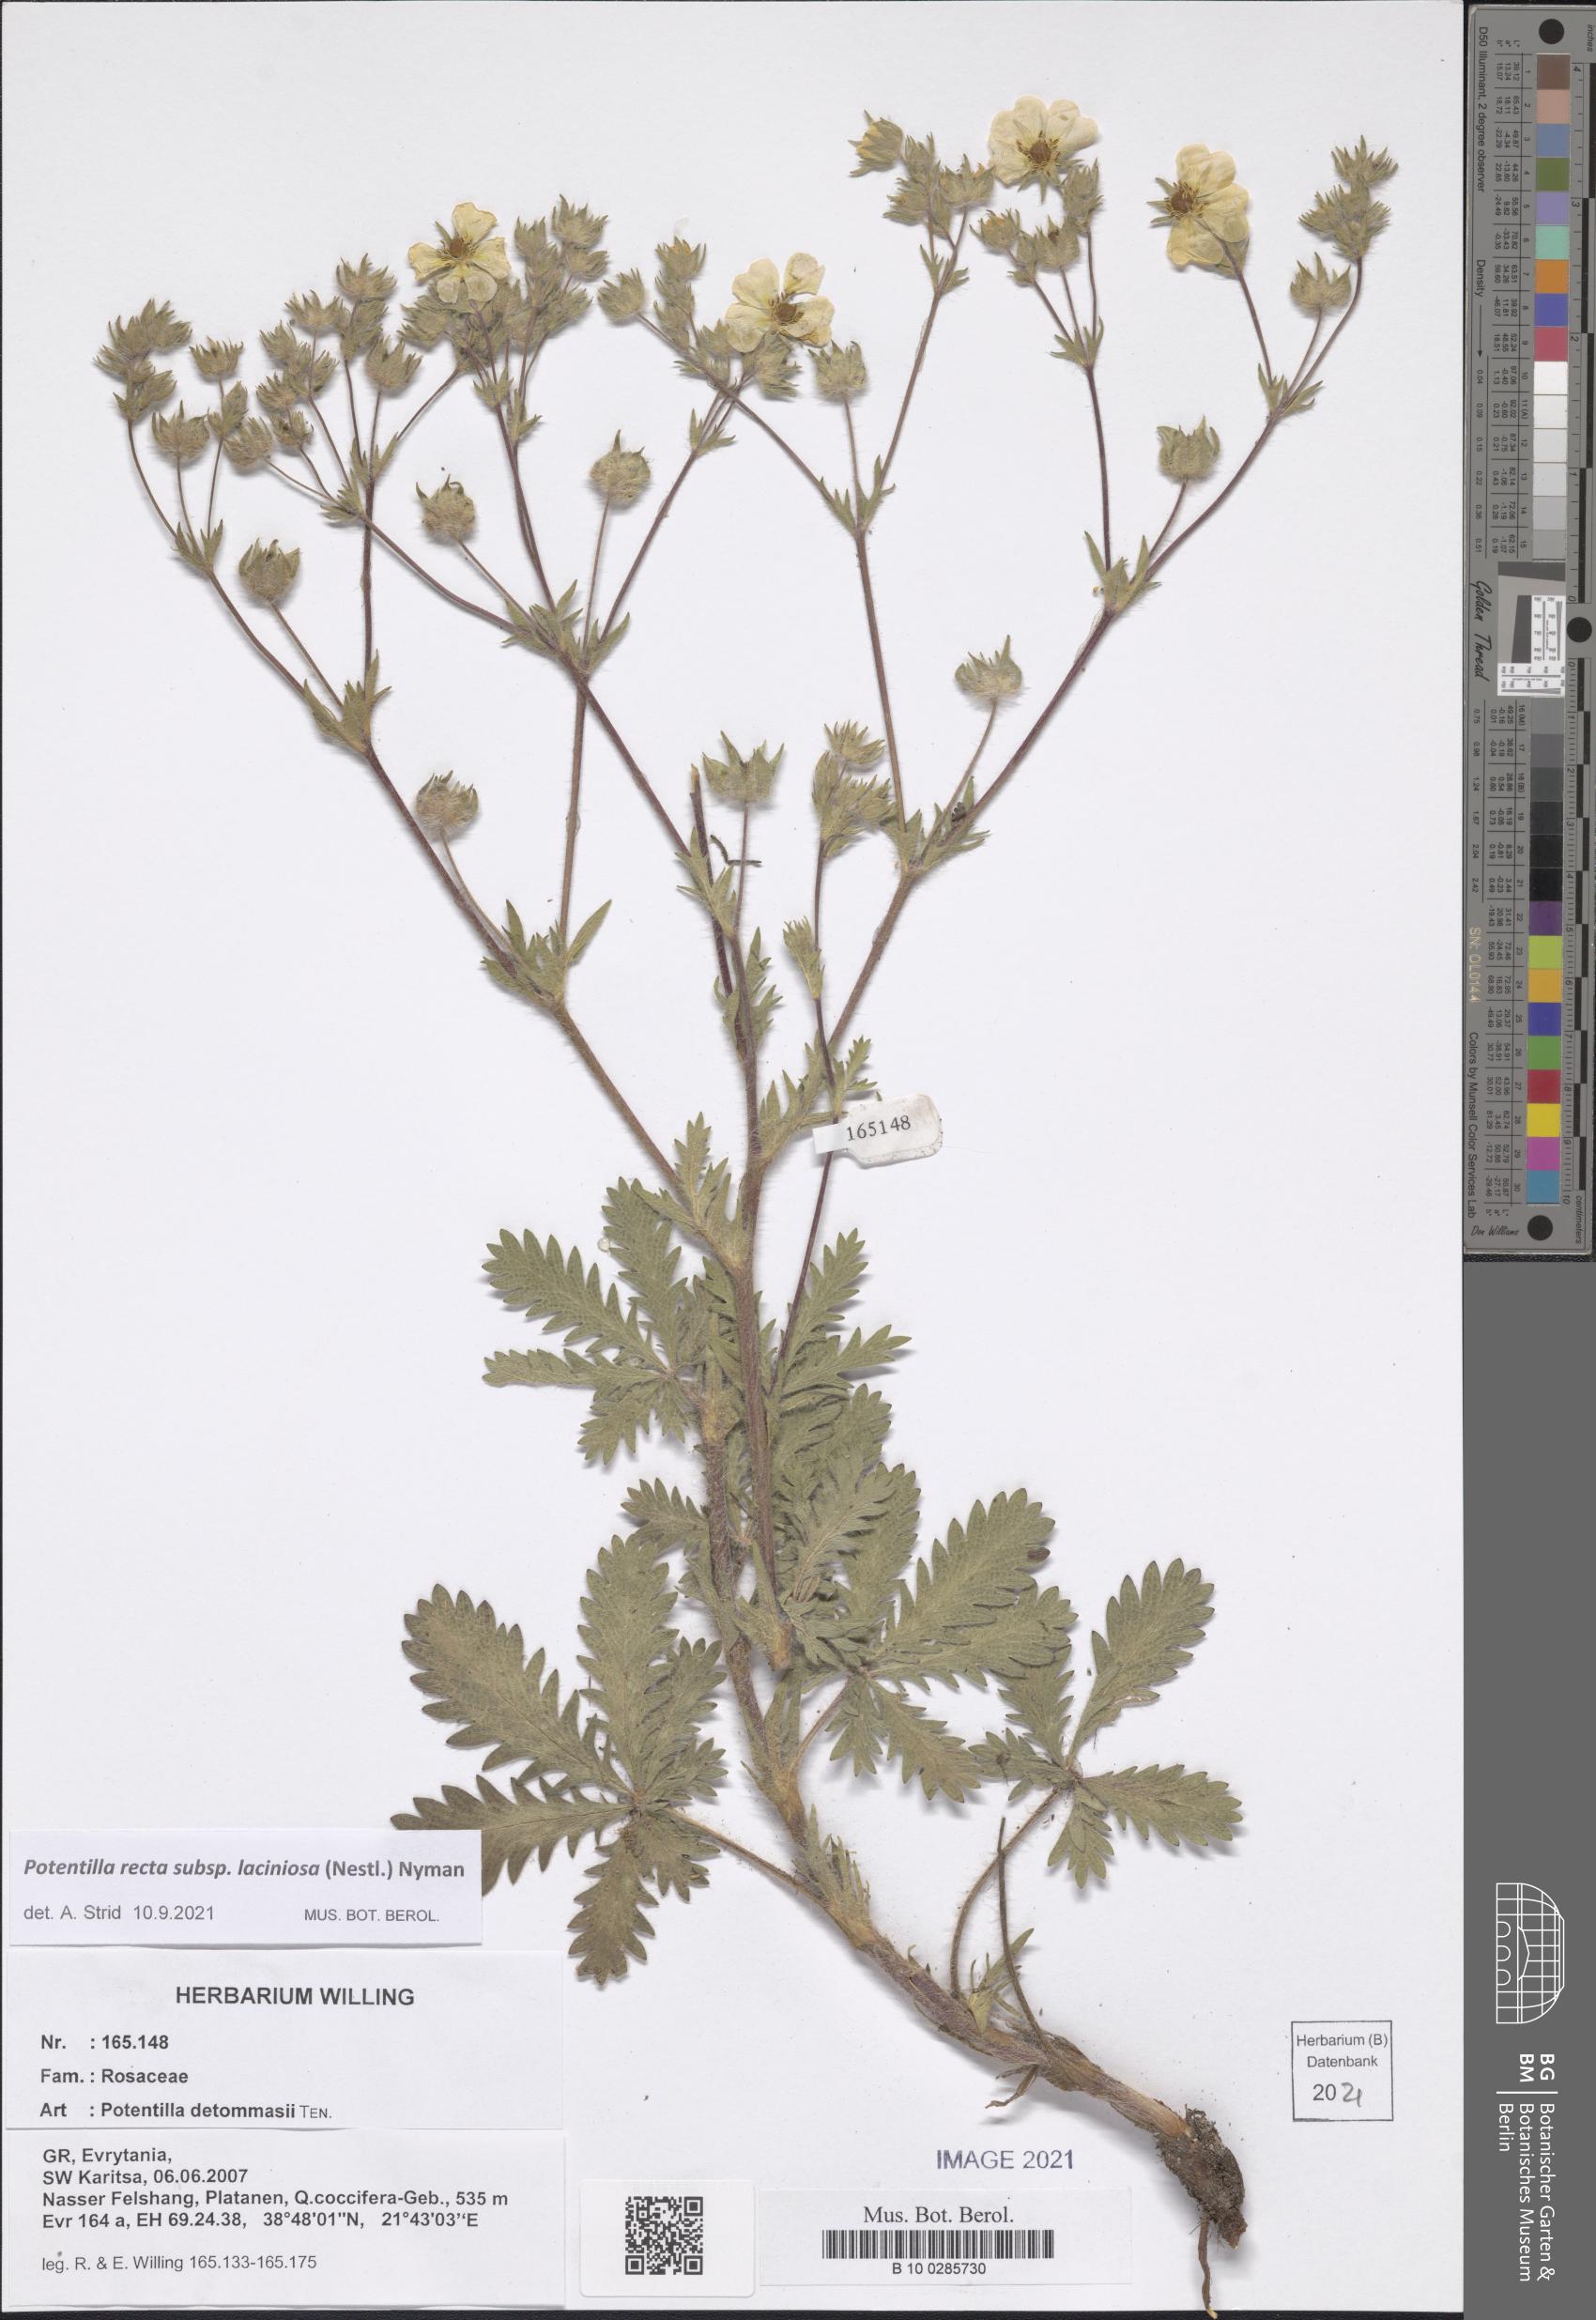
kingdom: Plantae
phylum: Tracheophyta
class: Magnoliopsida
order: Rosales
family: Rosaceae
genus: Potentilla
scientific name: Potentilla recta
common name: Sulphur cinquefoil
